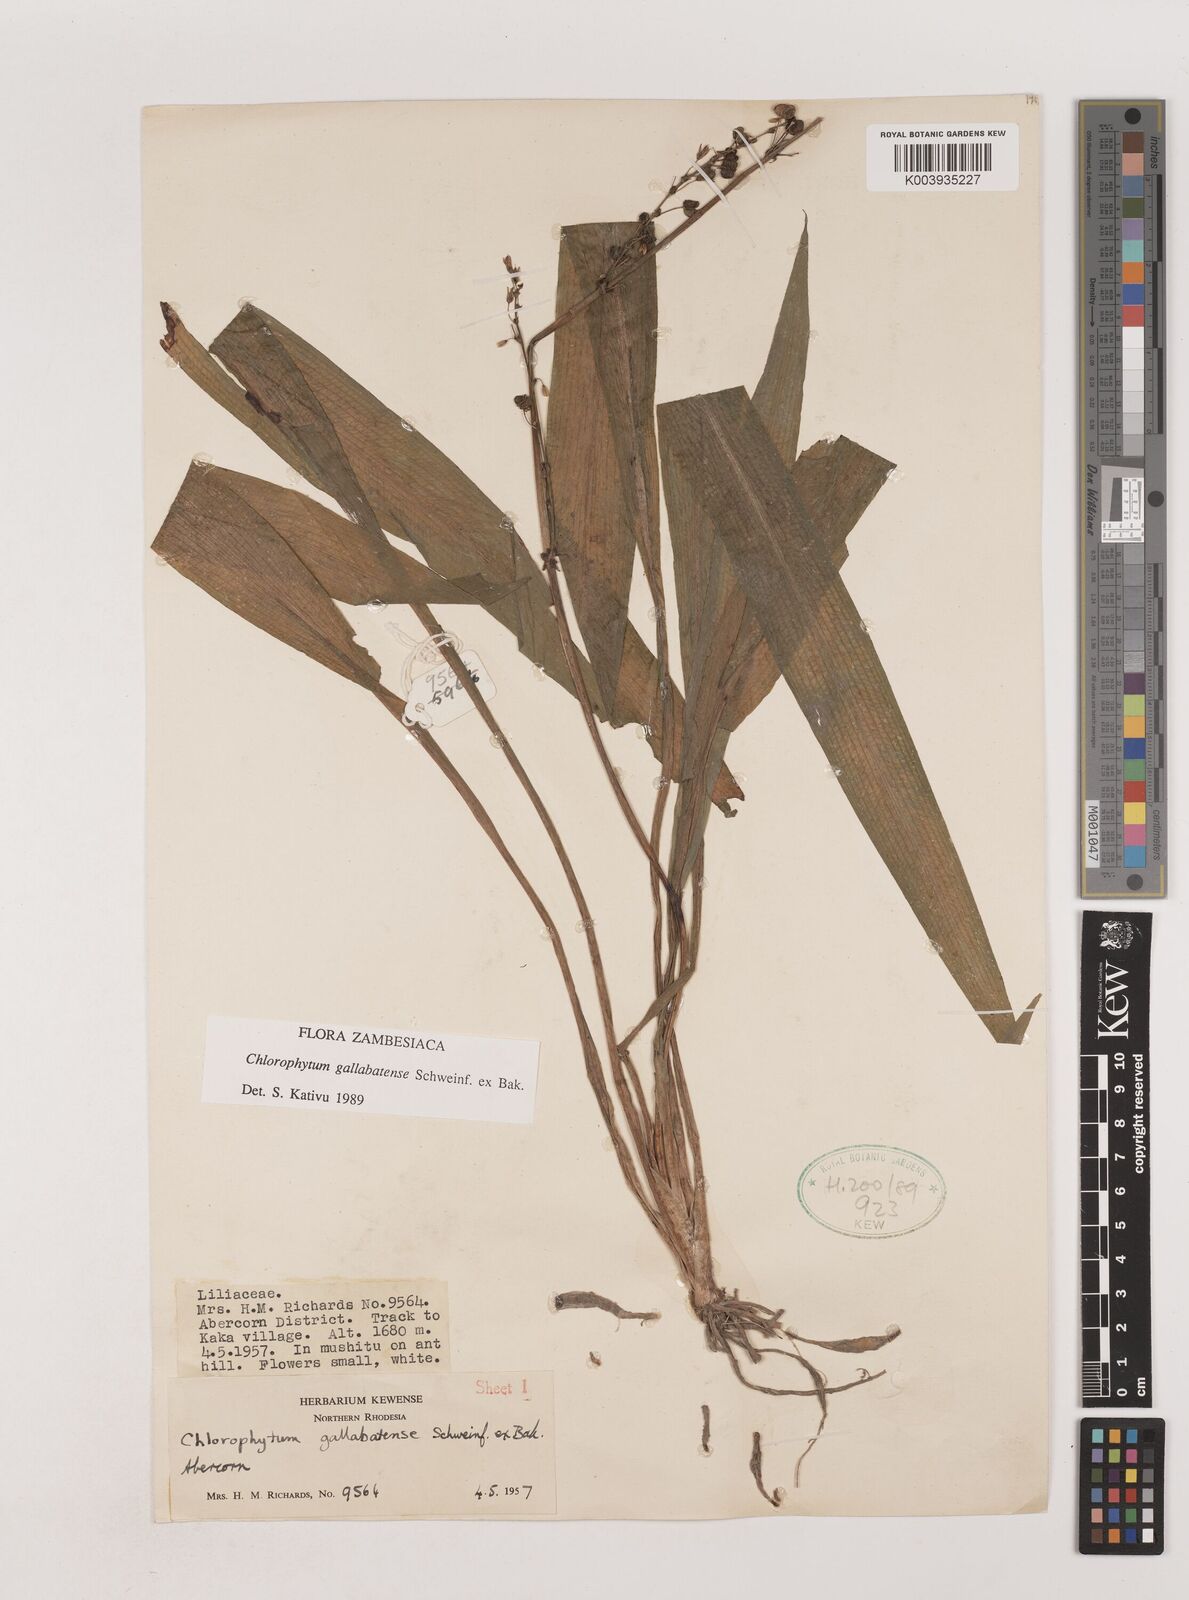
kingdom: Plantae
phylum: Tracheophyta
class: Liliopsida
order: Asparagales
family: Asparagaceae
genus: Chlorophytum
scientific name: Chlorophytum gallabatense
